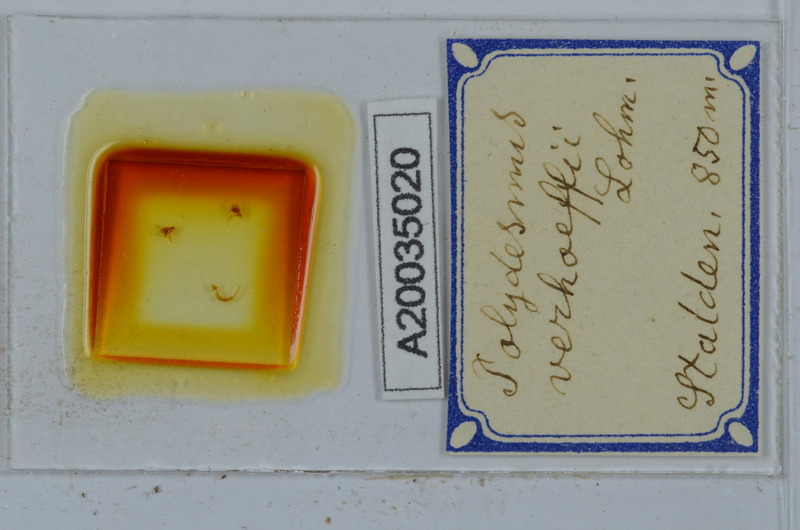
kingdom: Animalia
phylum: Arthropoda
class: Diplopoda
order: Polydesmida
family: Polydesmidae
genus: Polydesmus
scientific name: Polydesmus angustus
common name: Flat millipede
